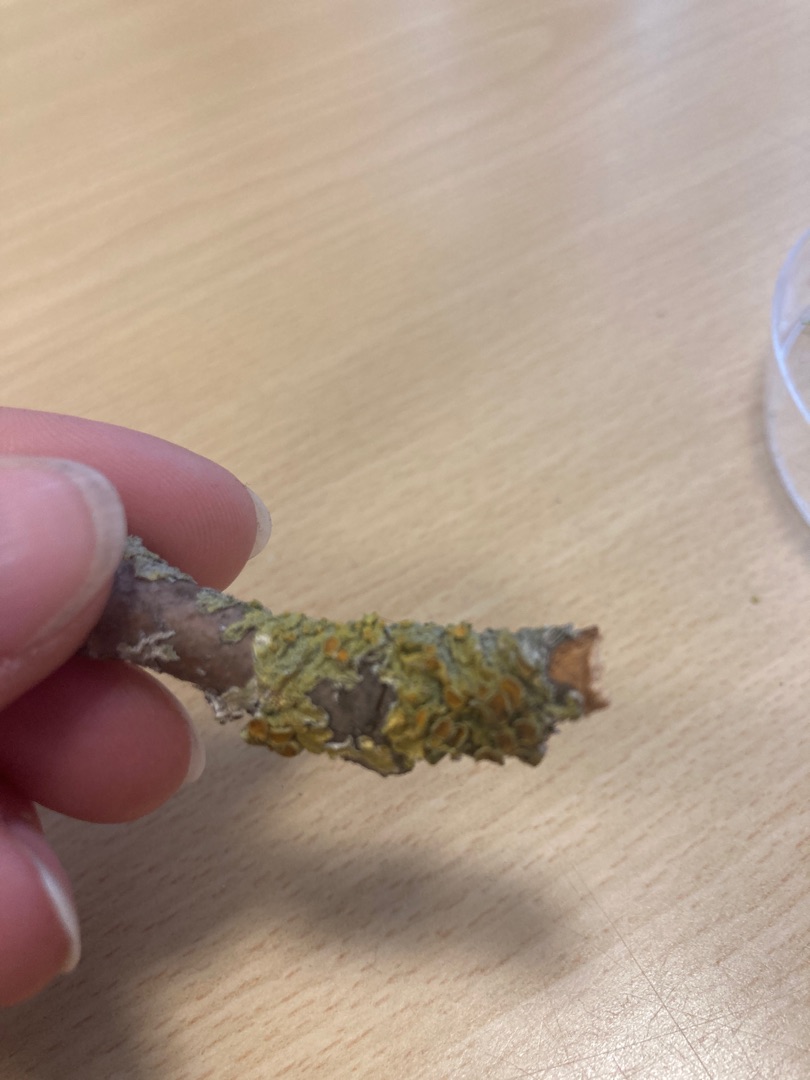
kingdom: Fungi
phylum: Ascomycota
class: Lecanoromycetes
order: Teloschistales
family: Teloschistaceae
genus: Xanthoria
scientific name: Xanthoria parietina
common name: Almindelig væggelav
